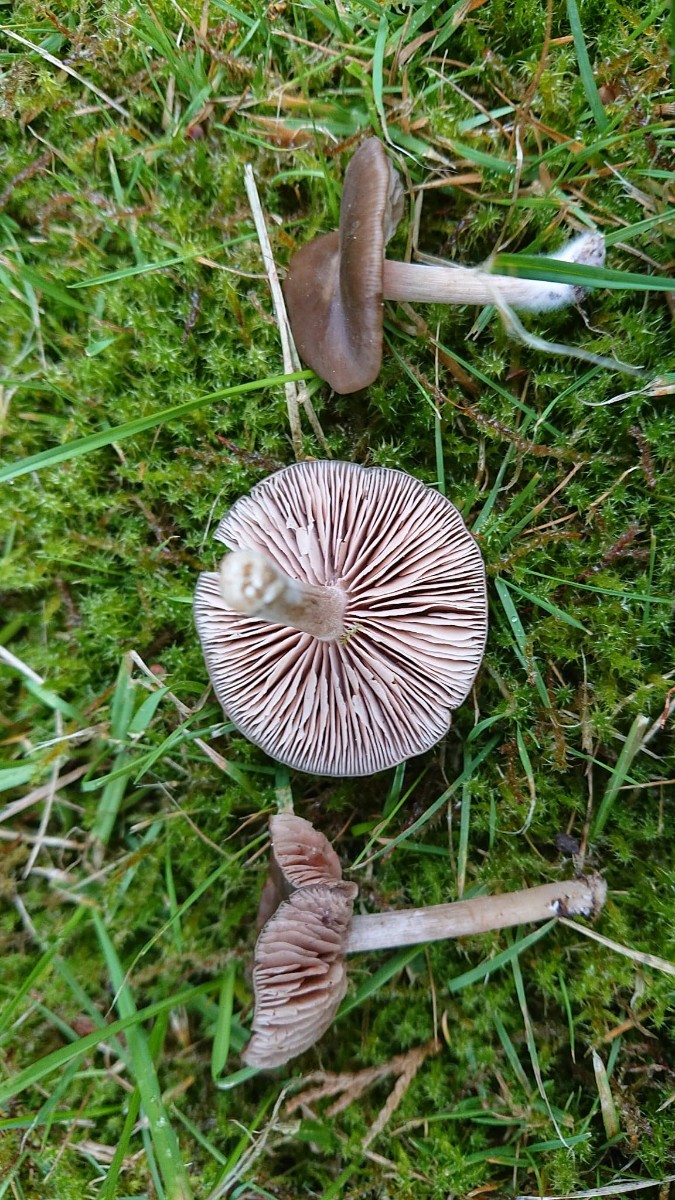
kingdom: Fungi
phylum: Basidiomycota
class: Agaricomycetes
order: Agaricales
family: Entolomataceae
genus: Entoloma
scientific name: Entoloma sericeum
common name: silkeglinsende rødblad
